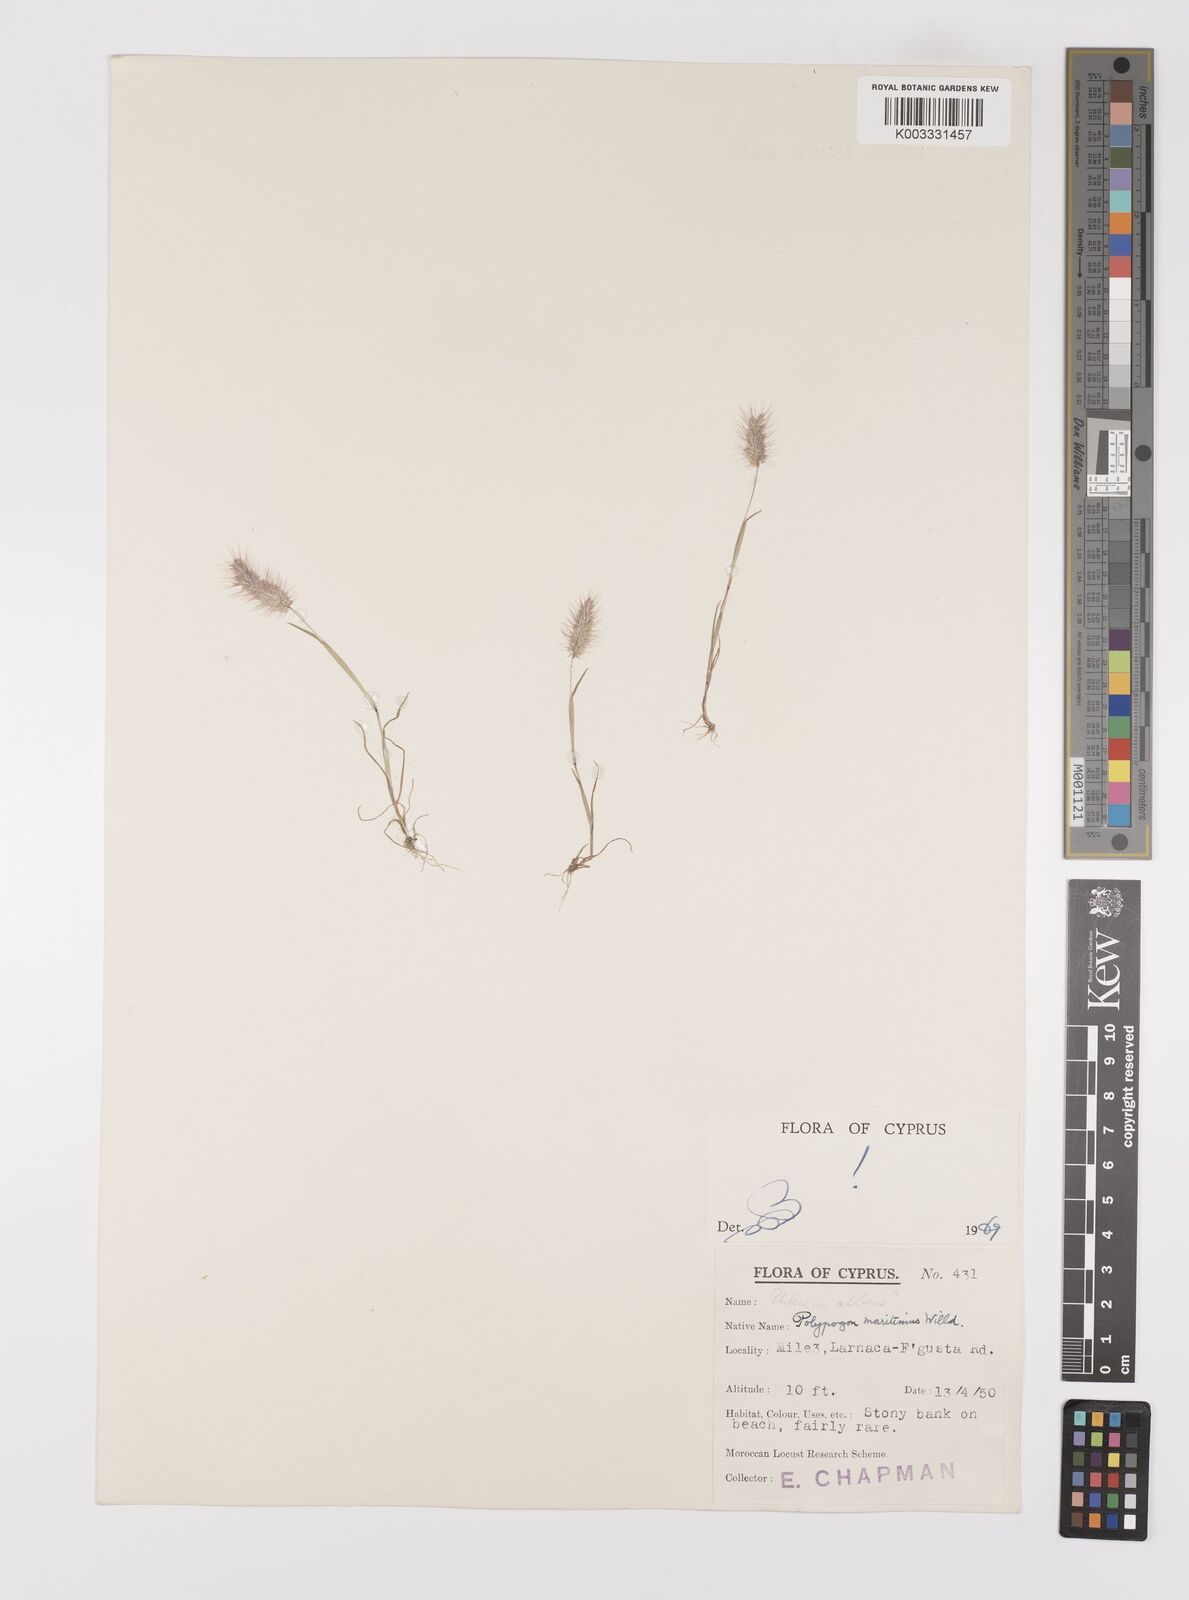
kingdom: Plantae
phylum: Tracheophyta
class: Liliopsida
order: Poales
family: Poaceae
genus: Polypogon
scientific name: Polypogon maritimus
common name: Mediterranean rabbitsfoot grass
